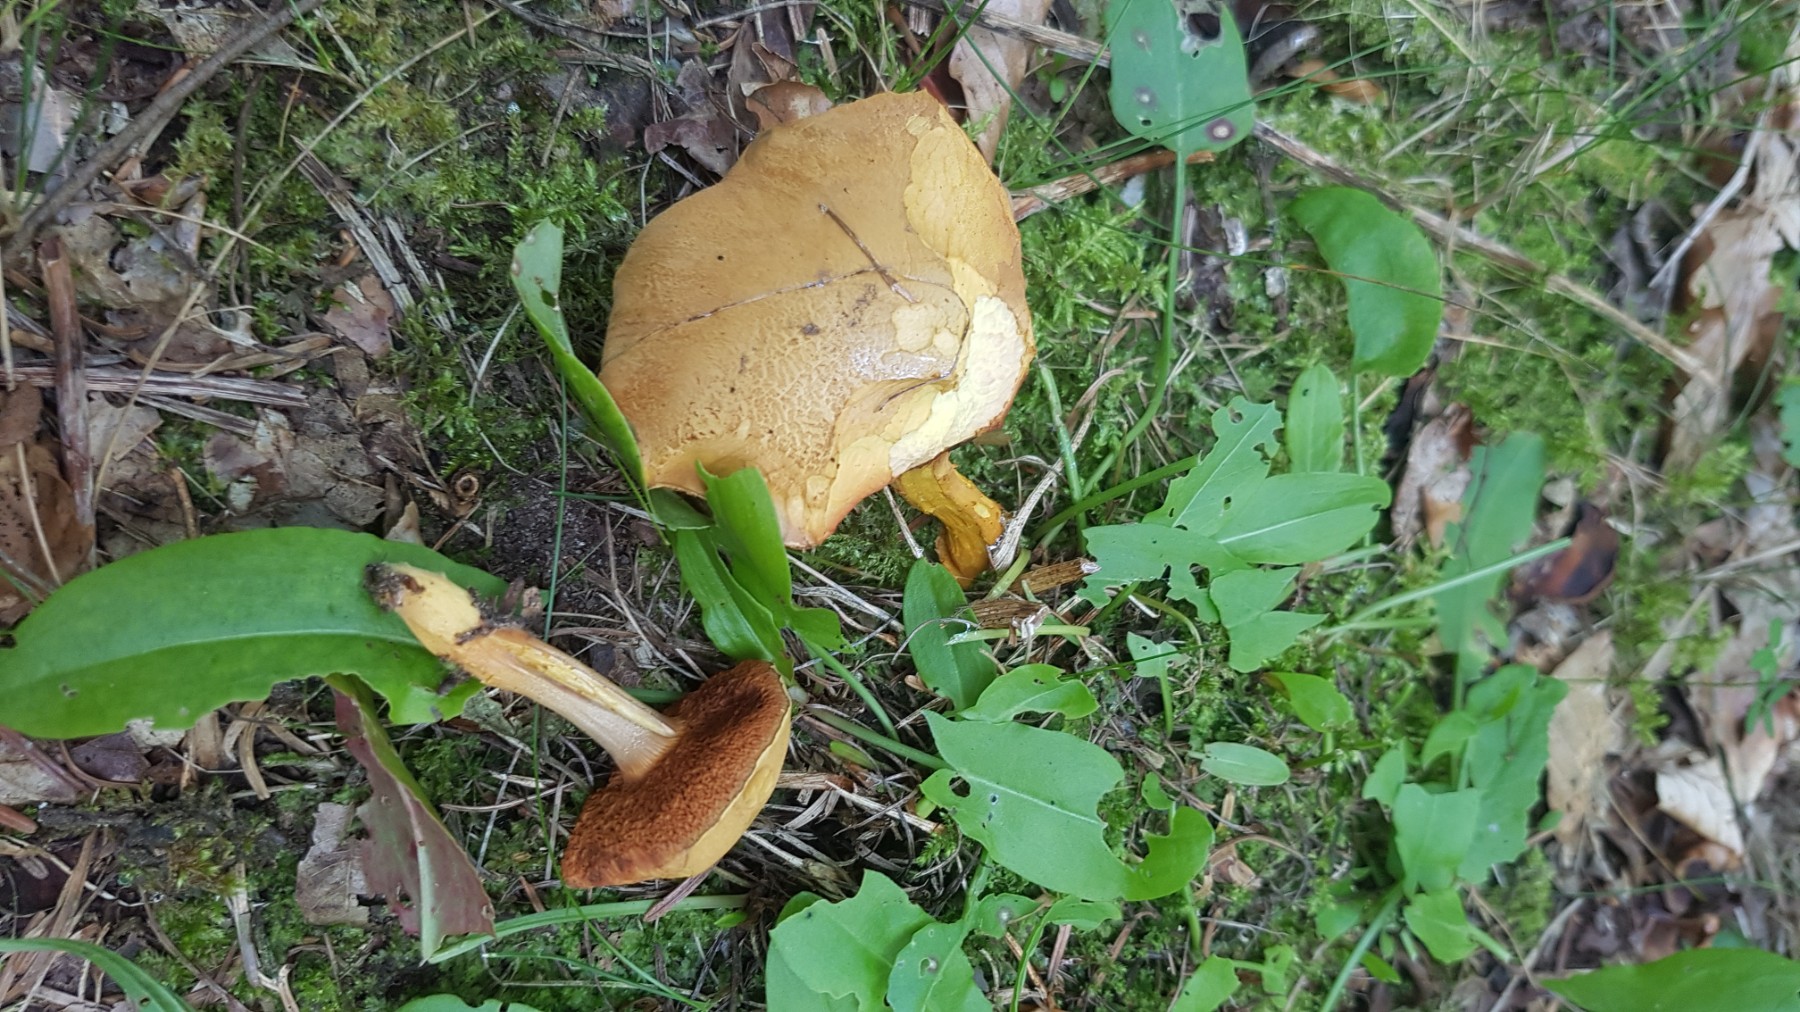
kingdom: Fungi
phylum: Basidiomycota
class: Agaricomycetes
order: Boletales
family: Boletaceae
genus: Chalciporus
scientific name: Chalciporus piperatus
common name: peberrørhat
